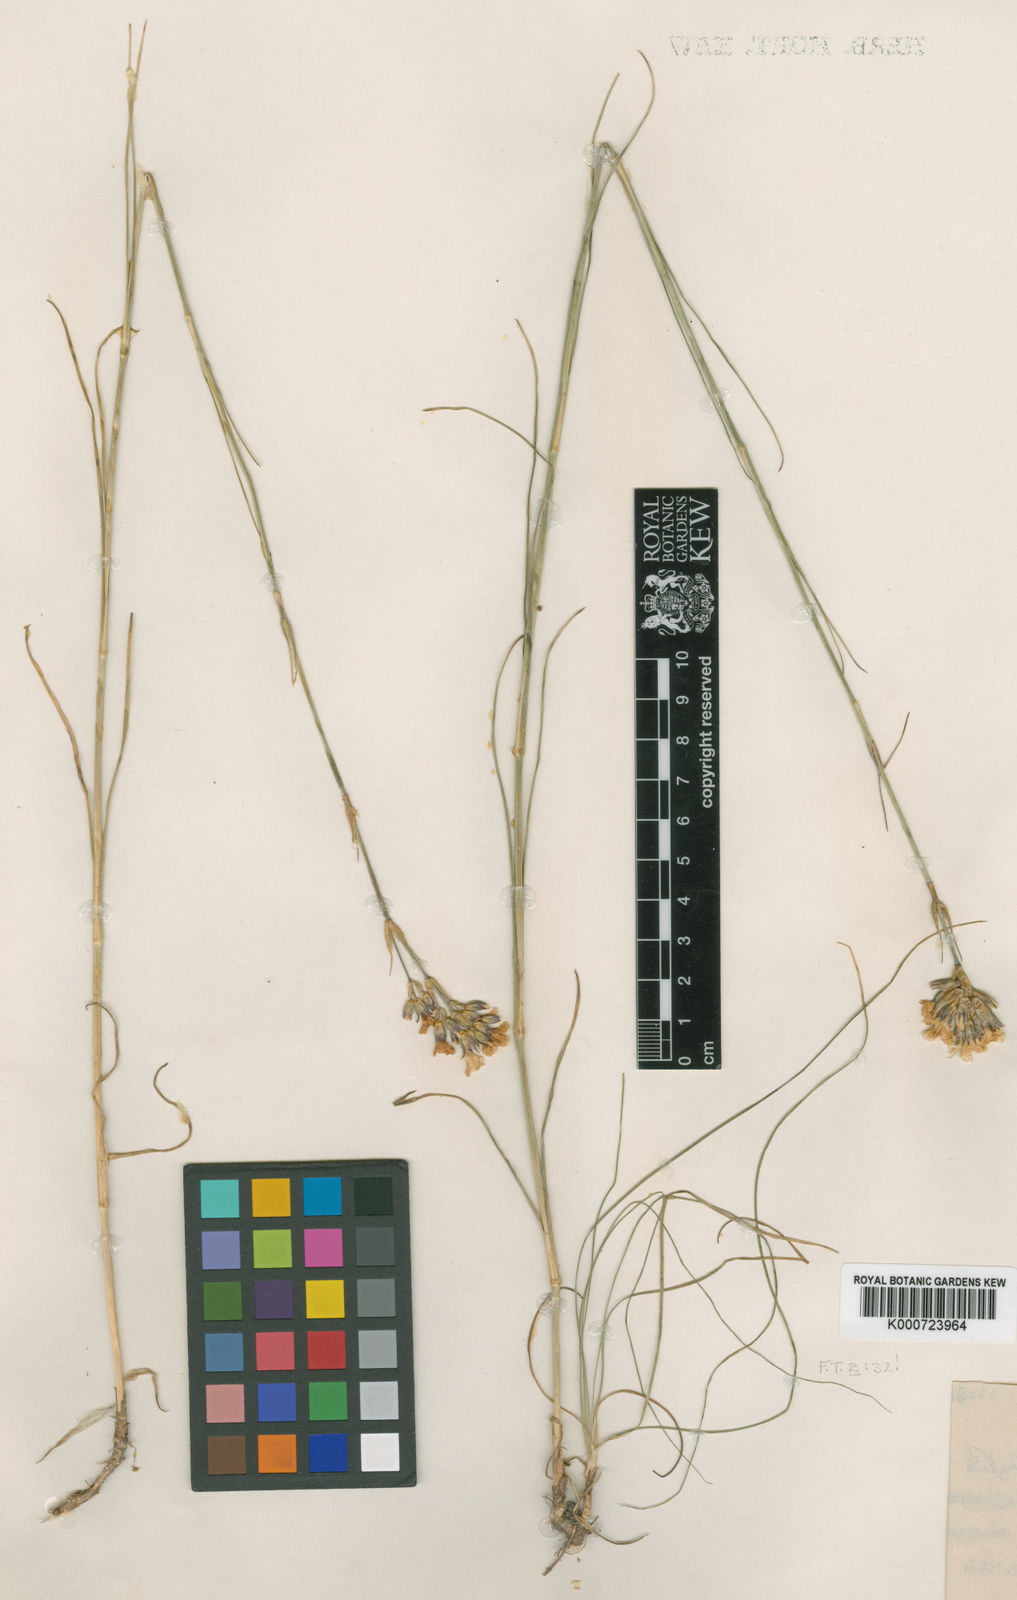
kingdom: Plantae
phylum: Tracheophyta
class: Magnoliopsida
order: Caryophyllales
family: Caryophyllaceae
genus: Arenaria
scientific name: Arenaria
